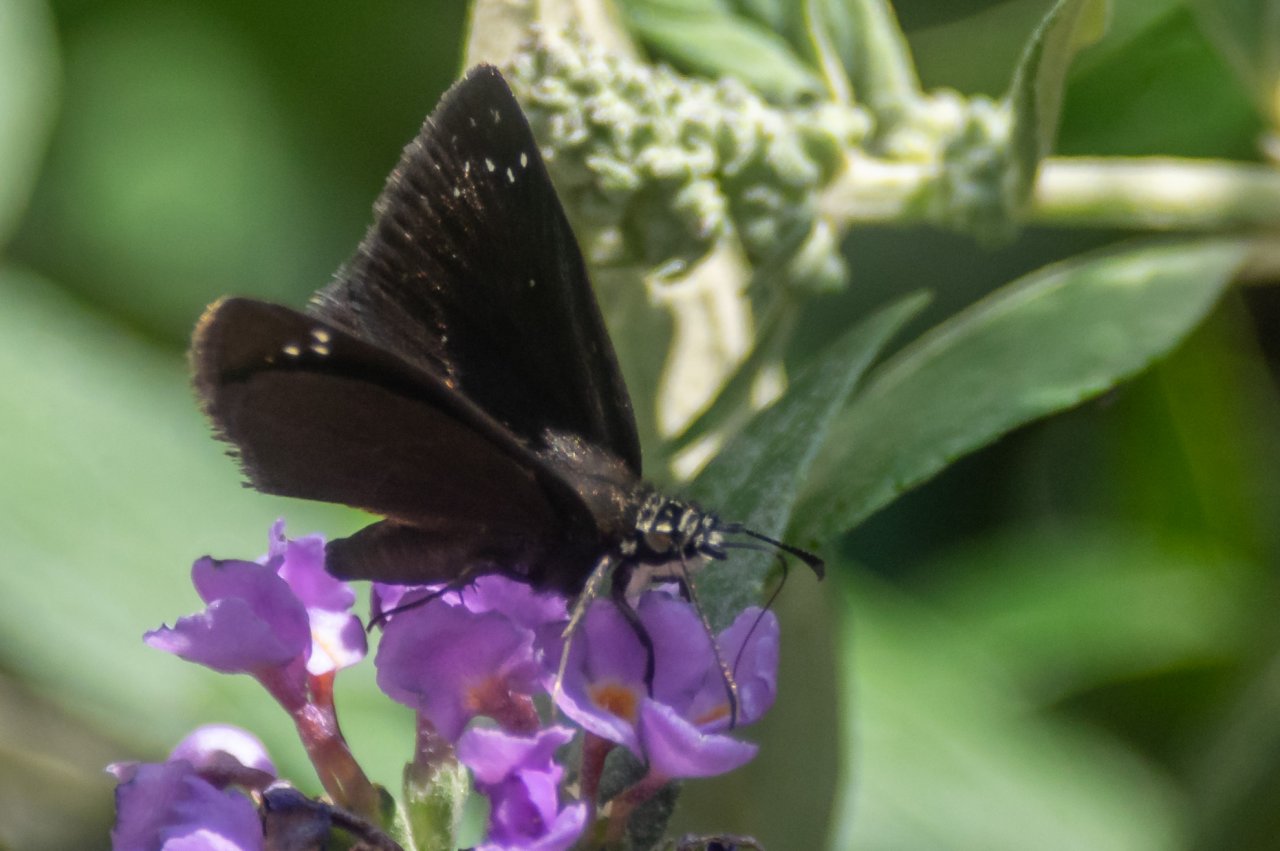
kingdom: Animalia
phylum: Arthropoda
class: Insecta
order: Lepidoptera
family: Hesperiidae
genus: Pholisora
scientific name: Pholisora catullus
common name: Common Sootywing
